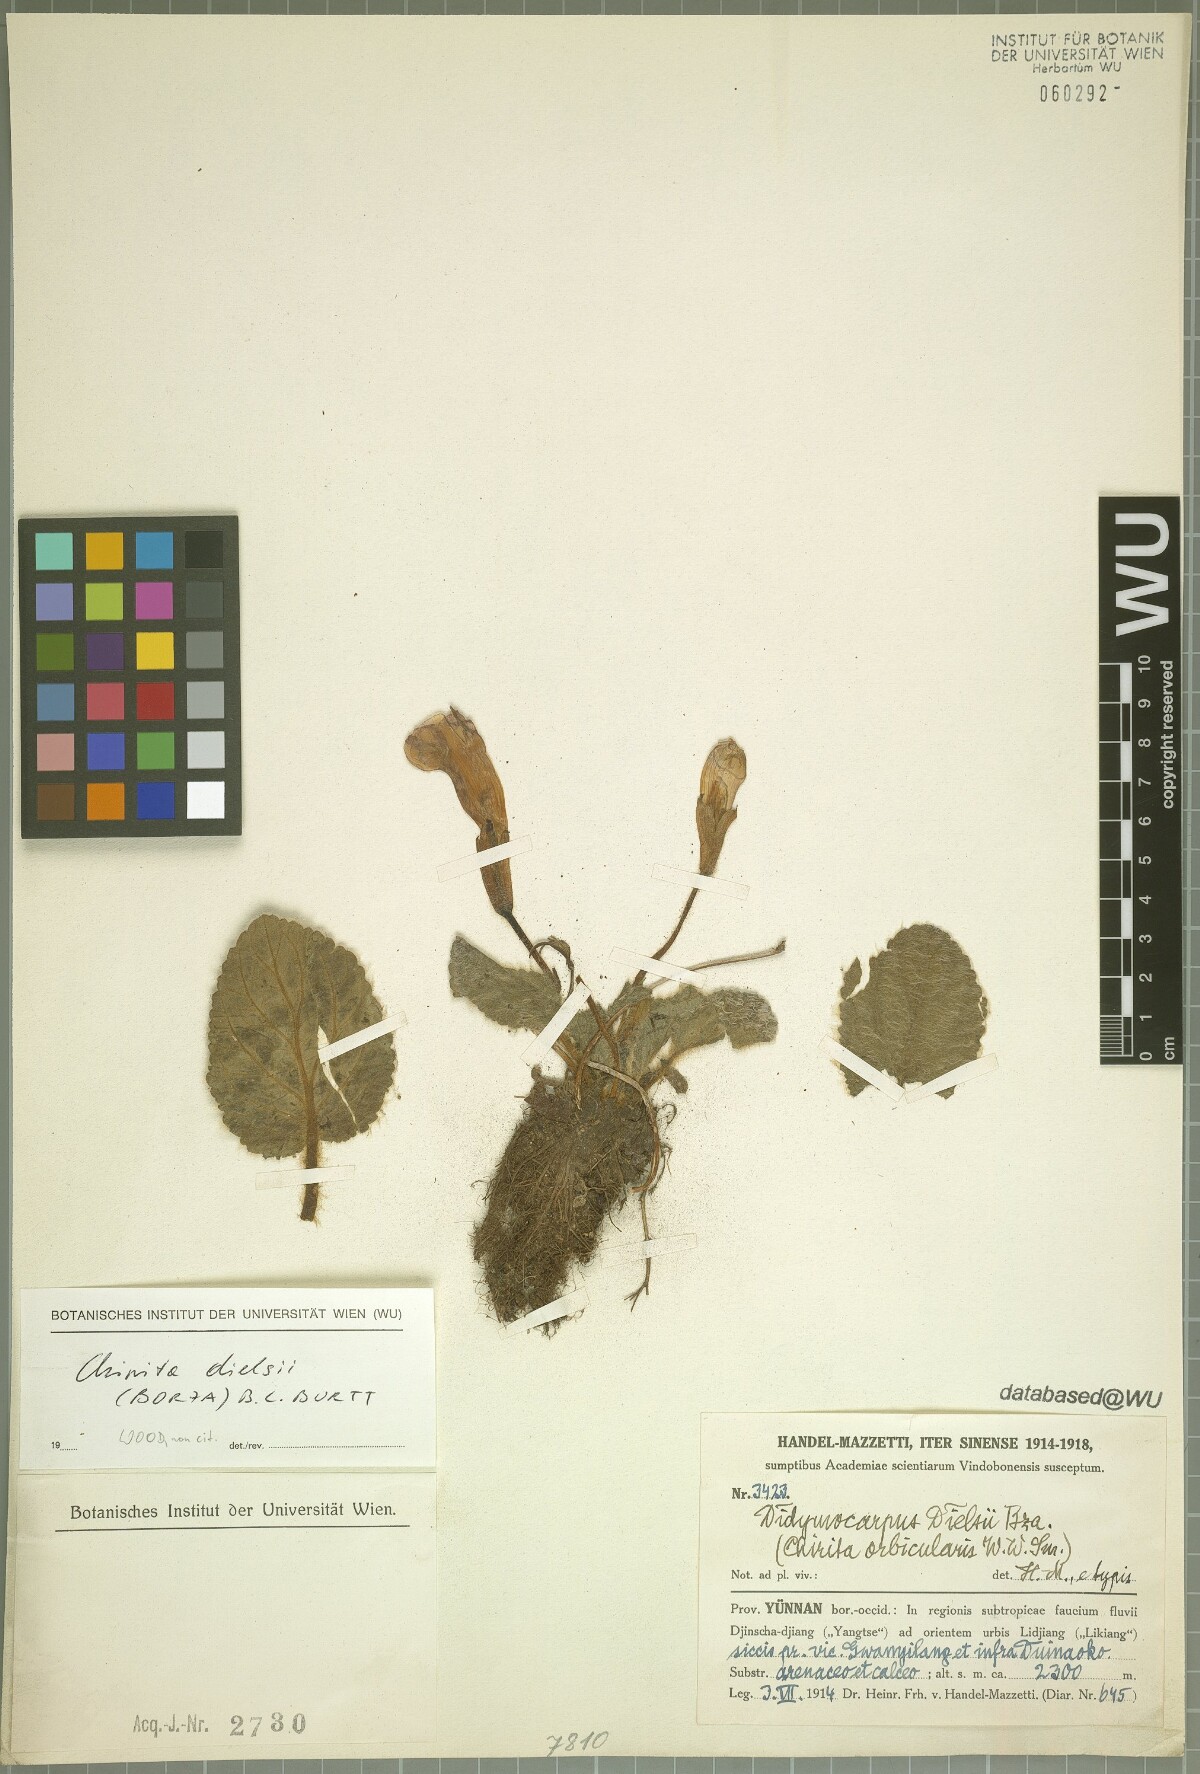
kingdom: Plantae
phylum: Tracheophyta
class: Magnoliopsida
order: Lamiales
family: Gesneriaceae
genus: Henckelia
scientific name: Henckelia dielsii
